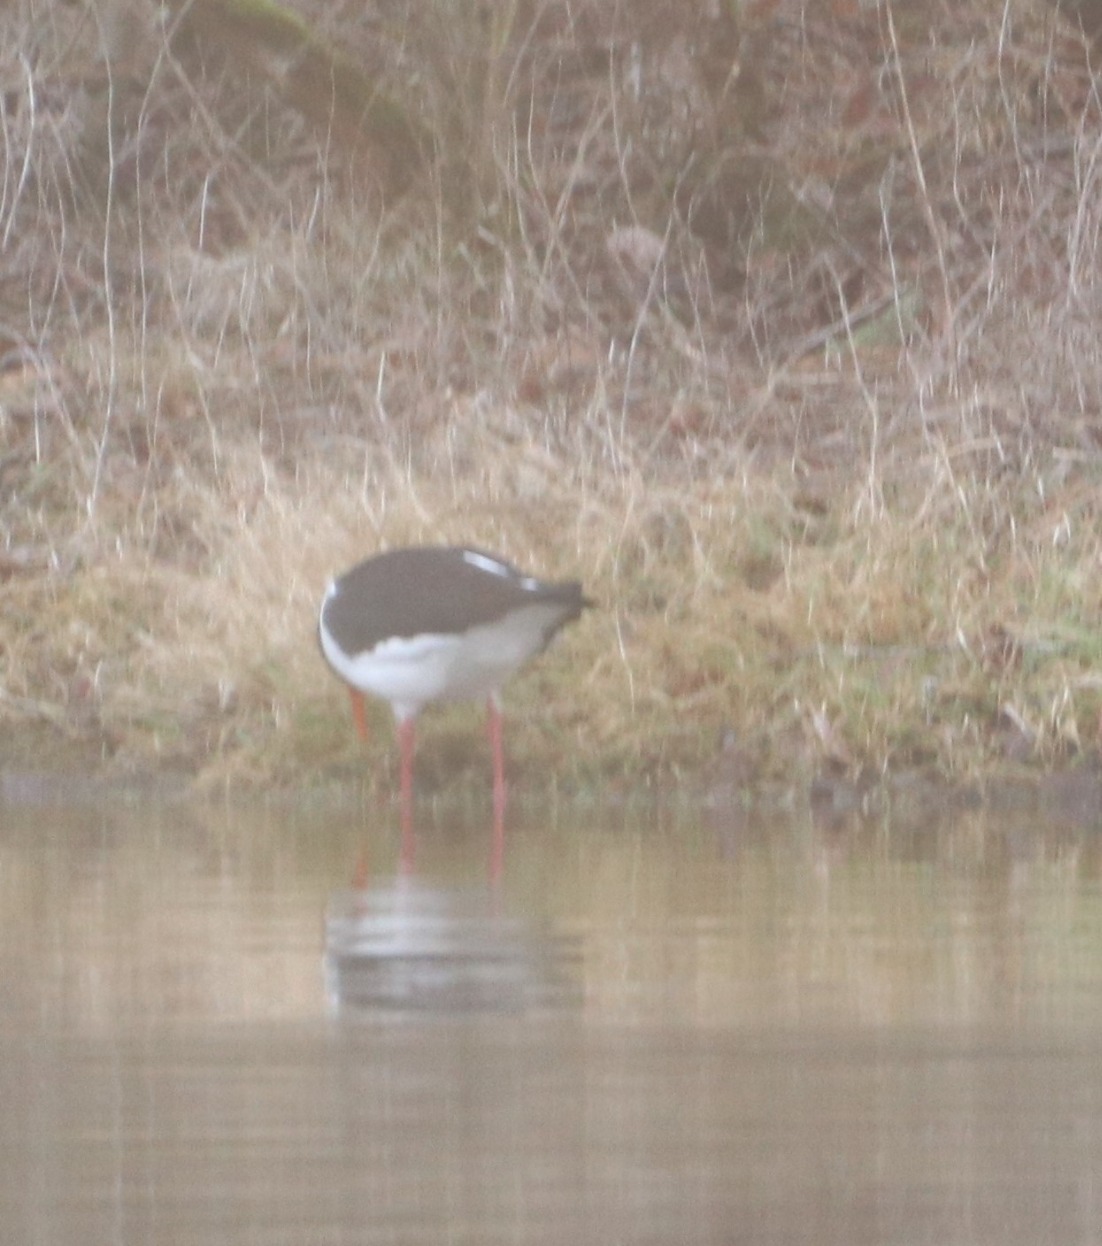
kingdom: Animalia
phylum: Chordata
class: Aves
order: Charadriiformes
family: Haematopodidae
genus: Haematopus
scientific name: Haematopus ostralegus
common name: Strandskade
